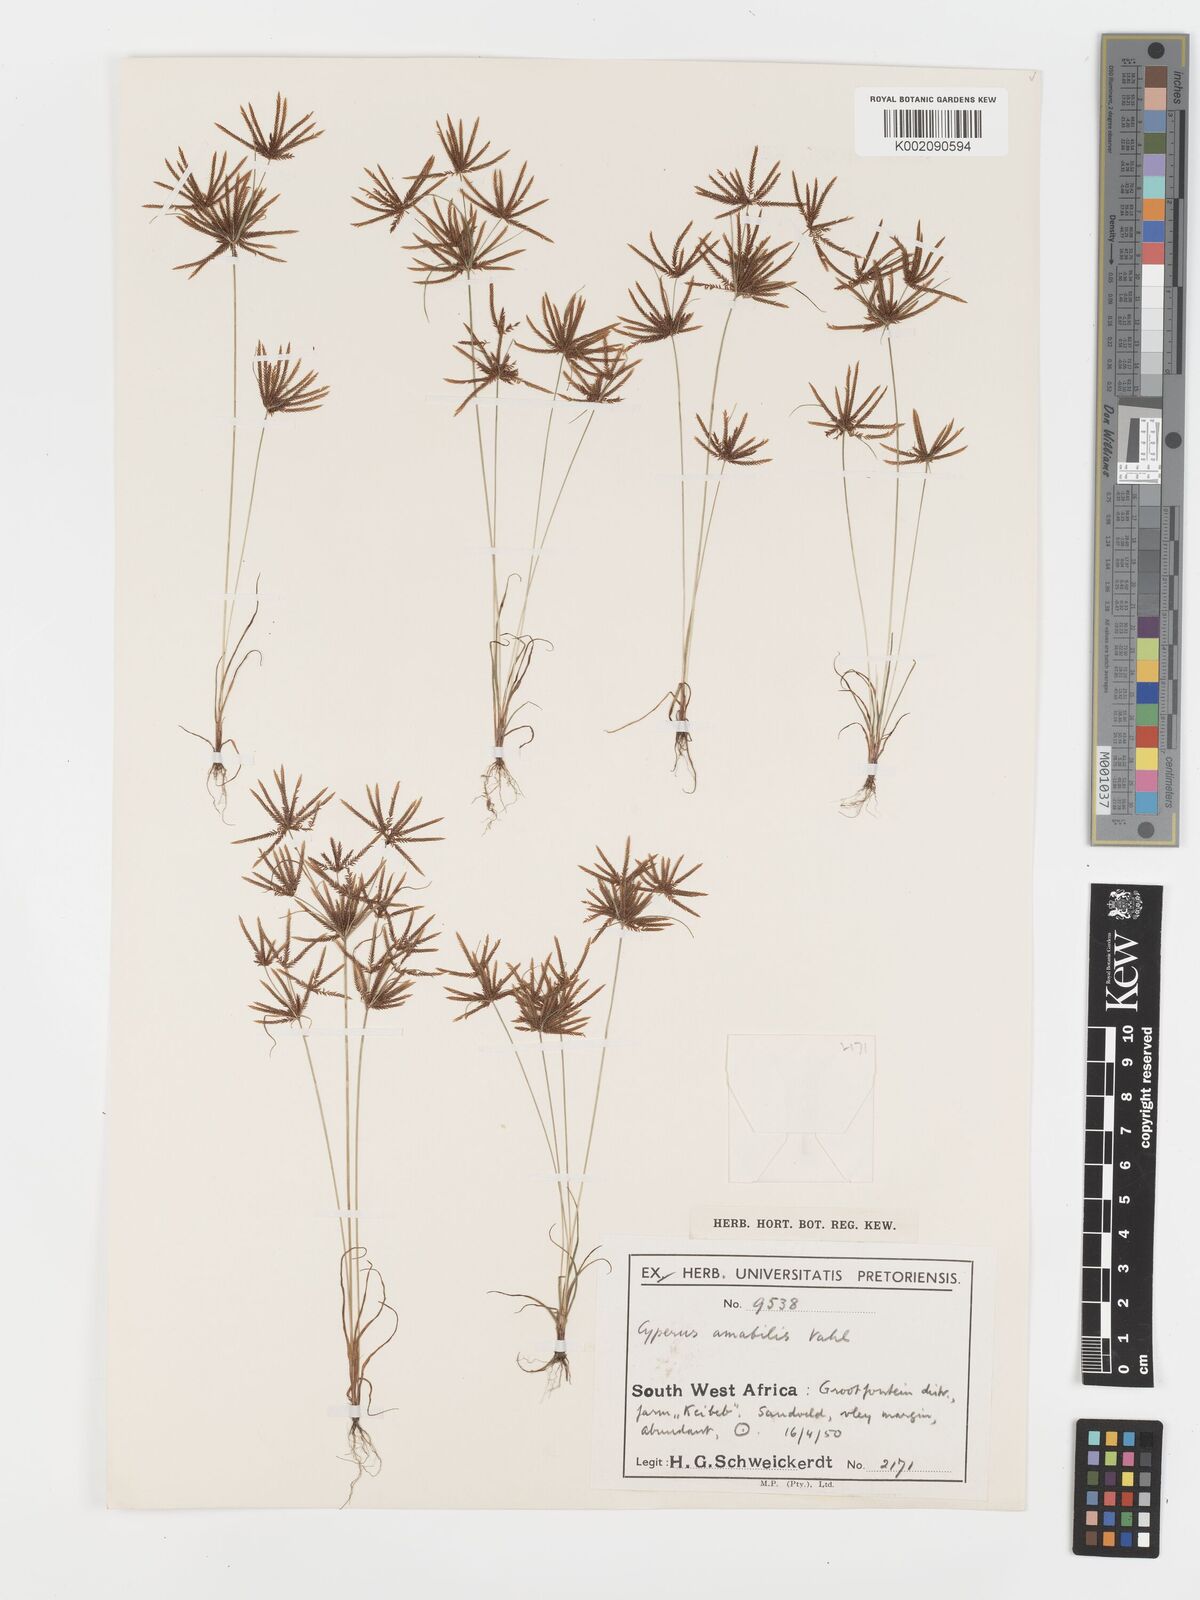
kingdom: Plantae
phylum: Tracheophyta
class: Liliopsida
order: Poales
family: Cyperaceae
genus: Cyperus
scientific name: Cyperus amabilis
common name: Foothill flat sedge
